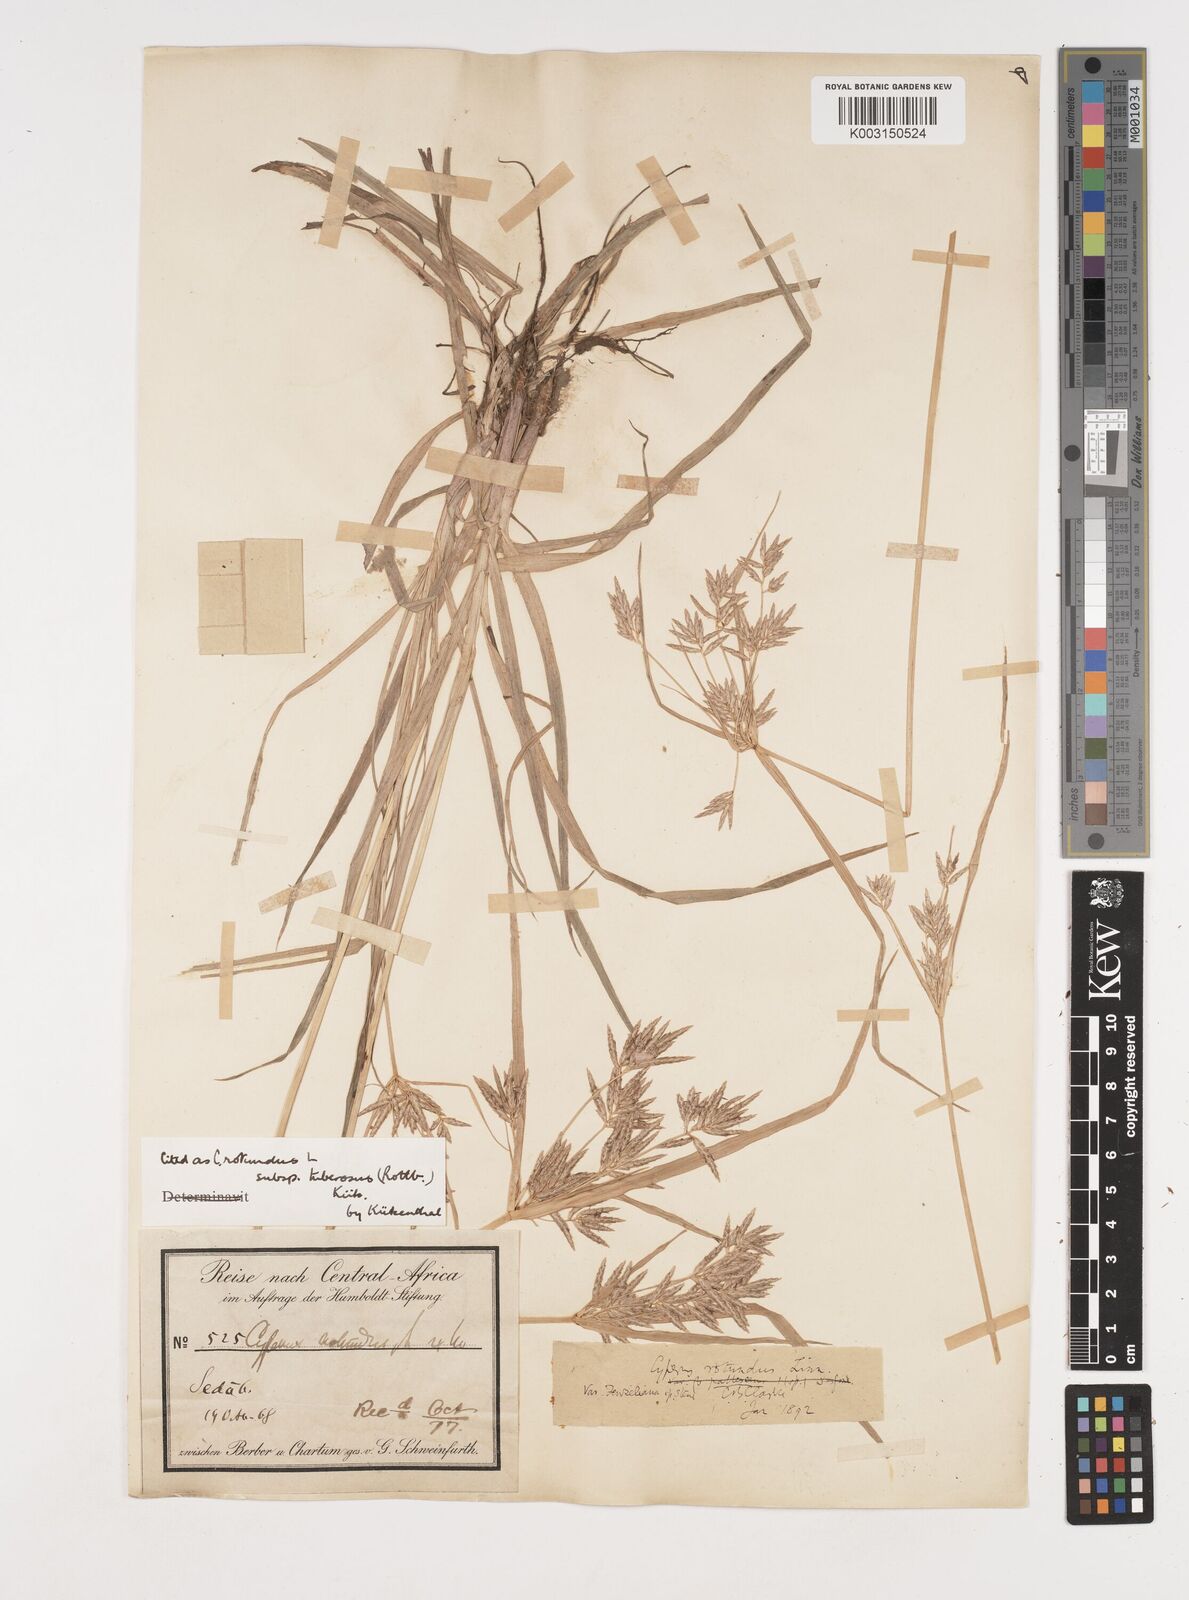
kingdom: Plantae
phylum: Tracheophyta
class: Liliopsida
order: Poales
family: Cyperaceae
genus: Cyperus
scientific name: Cyperus rotundus
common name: Nutgrass
